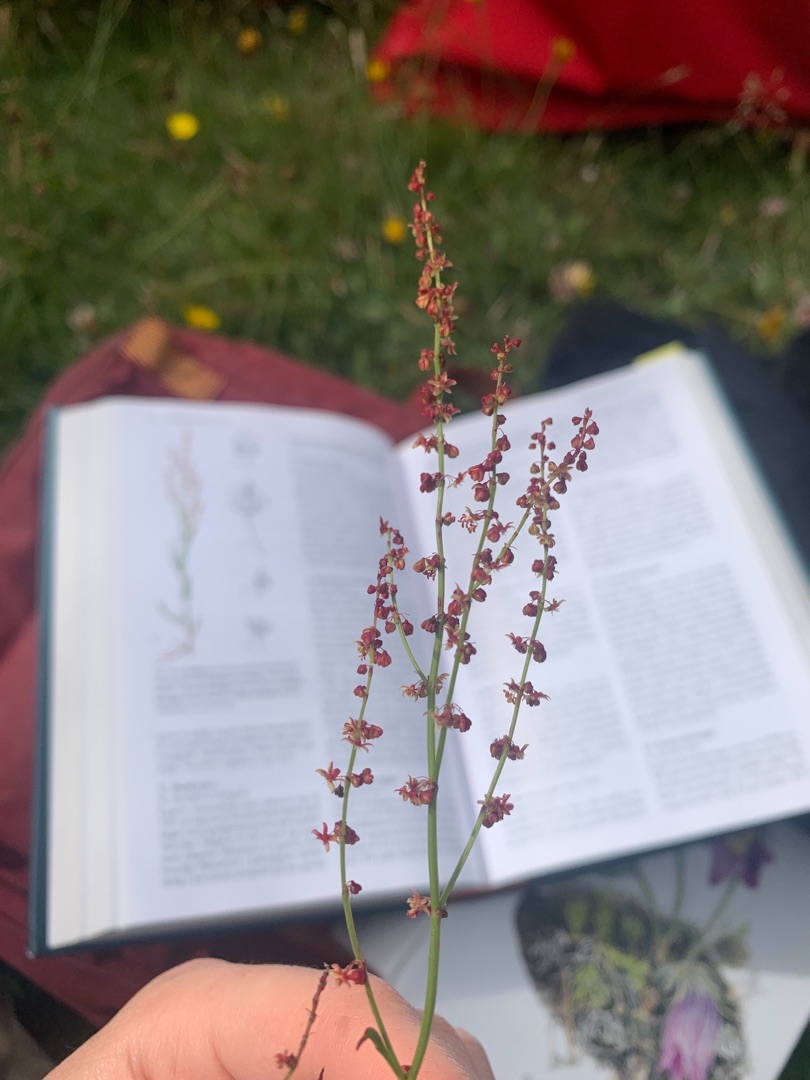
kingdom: Plantae
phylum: Tracheophyta
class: Magnoliopsida
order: Caryophyllales
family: Polygonaceae
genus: Rumex
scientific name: Rumex acetosella
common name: Rødknæ
